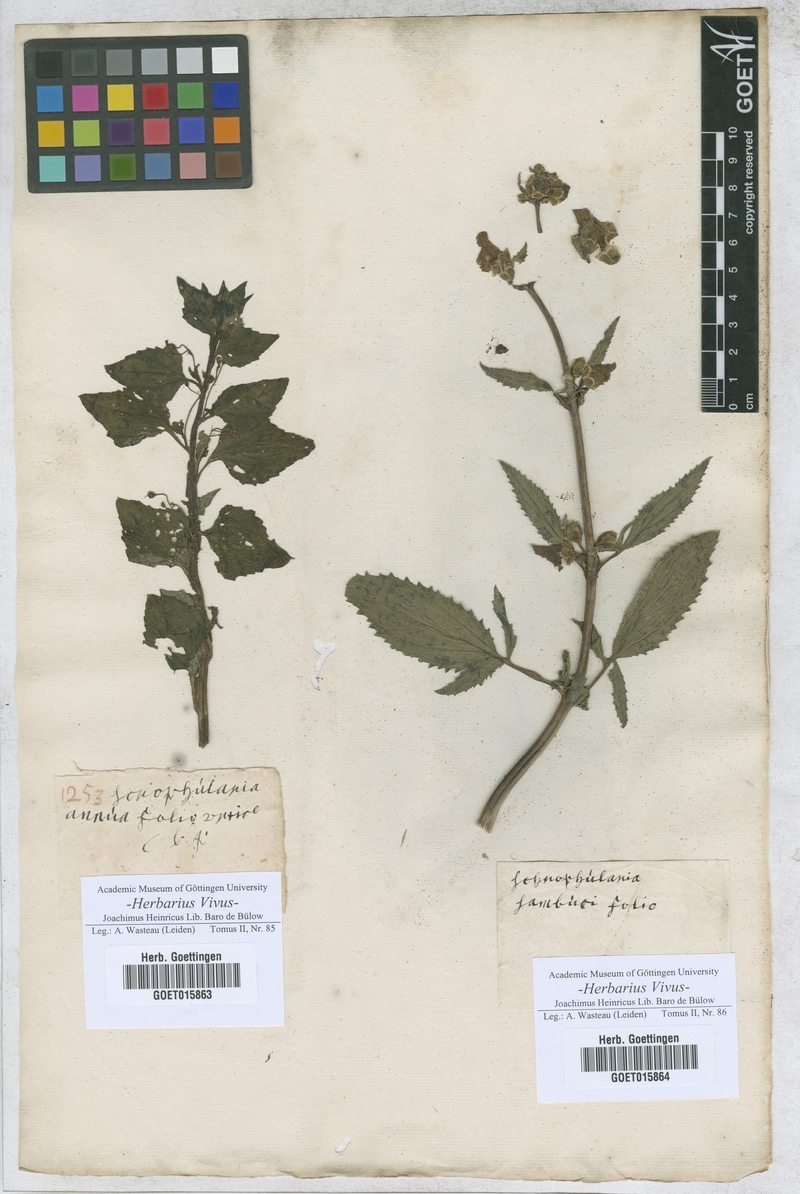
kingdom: Plantae
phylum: Tracheophyta
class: Magnoliopsida
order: Lamiales
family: Scrophulariaceae
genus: Scrophularia
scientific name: Scrophularia
